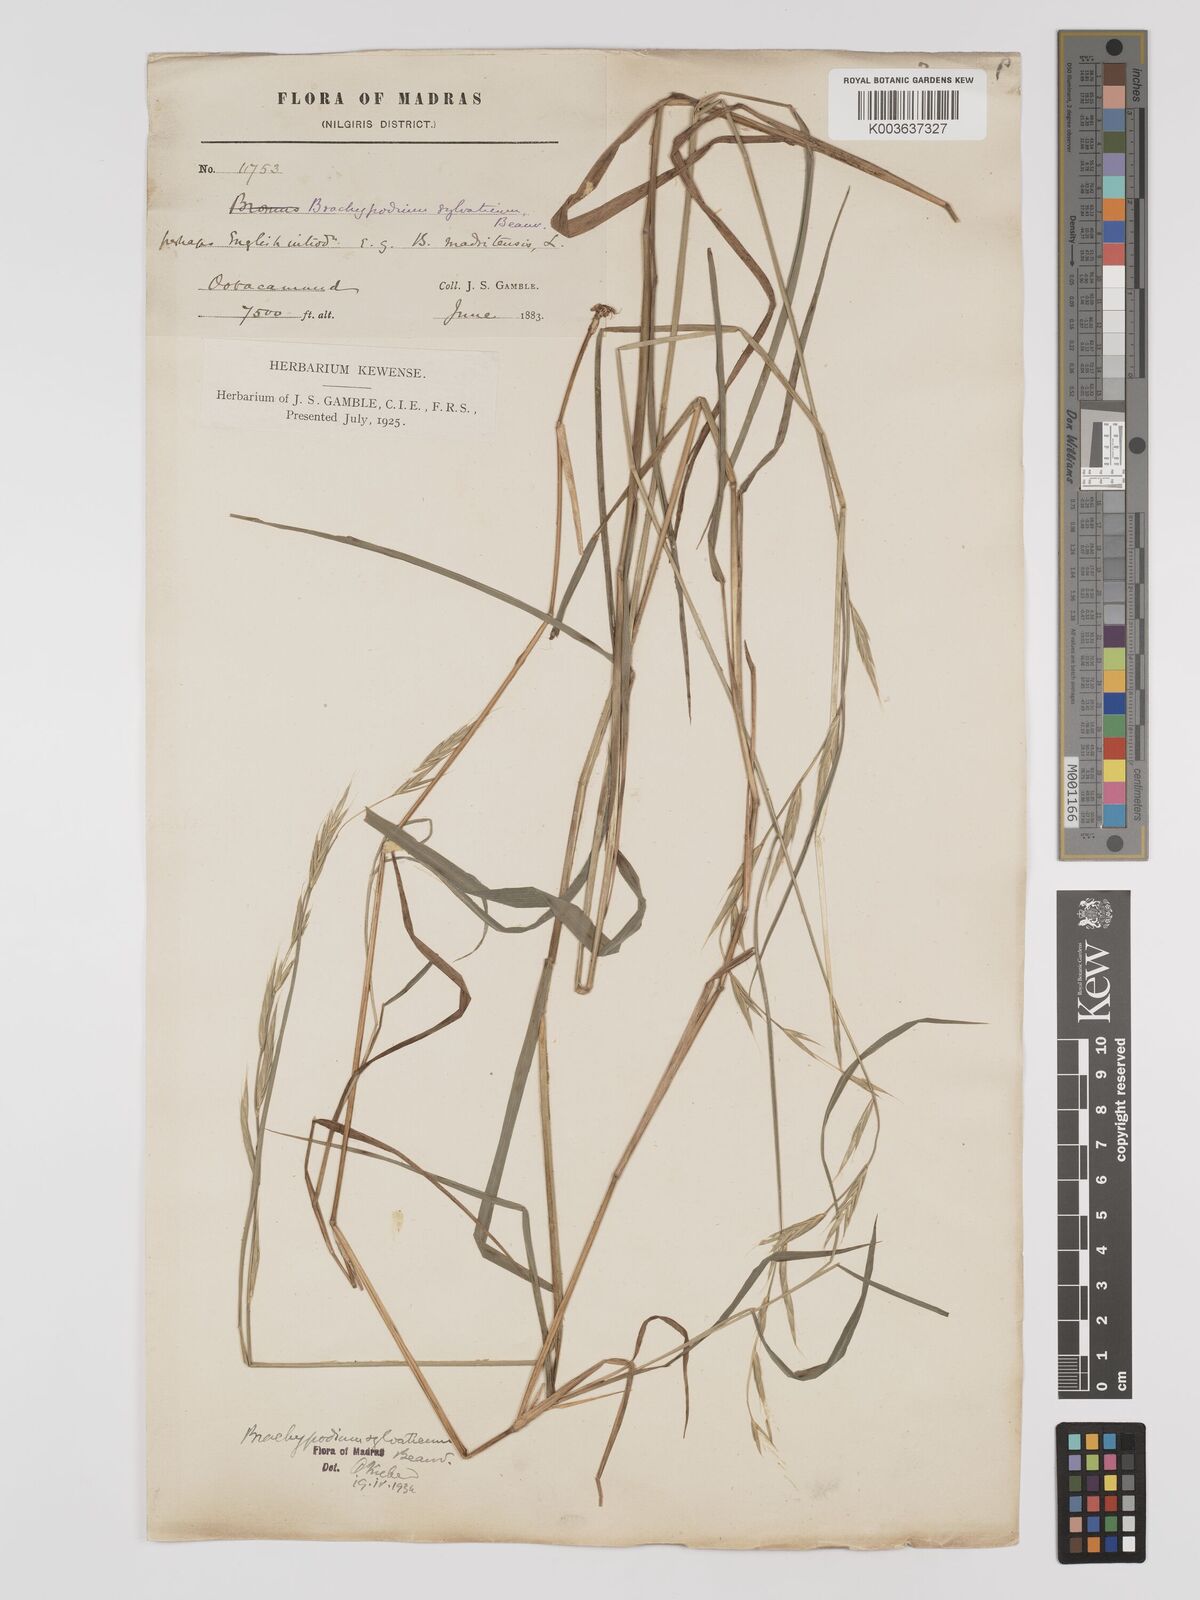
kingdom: Plantae
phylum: Tracheophyta
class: Liliopsida
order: Poales
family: Poaceae
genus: Brachypodium
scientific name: Brachypodium sylvaticum
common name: False-brome
